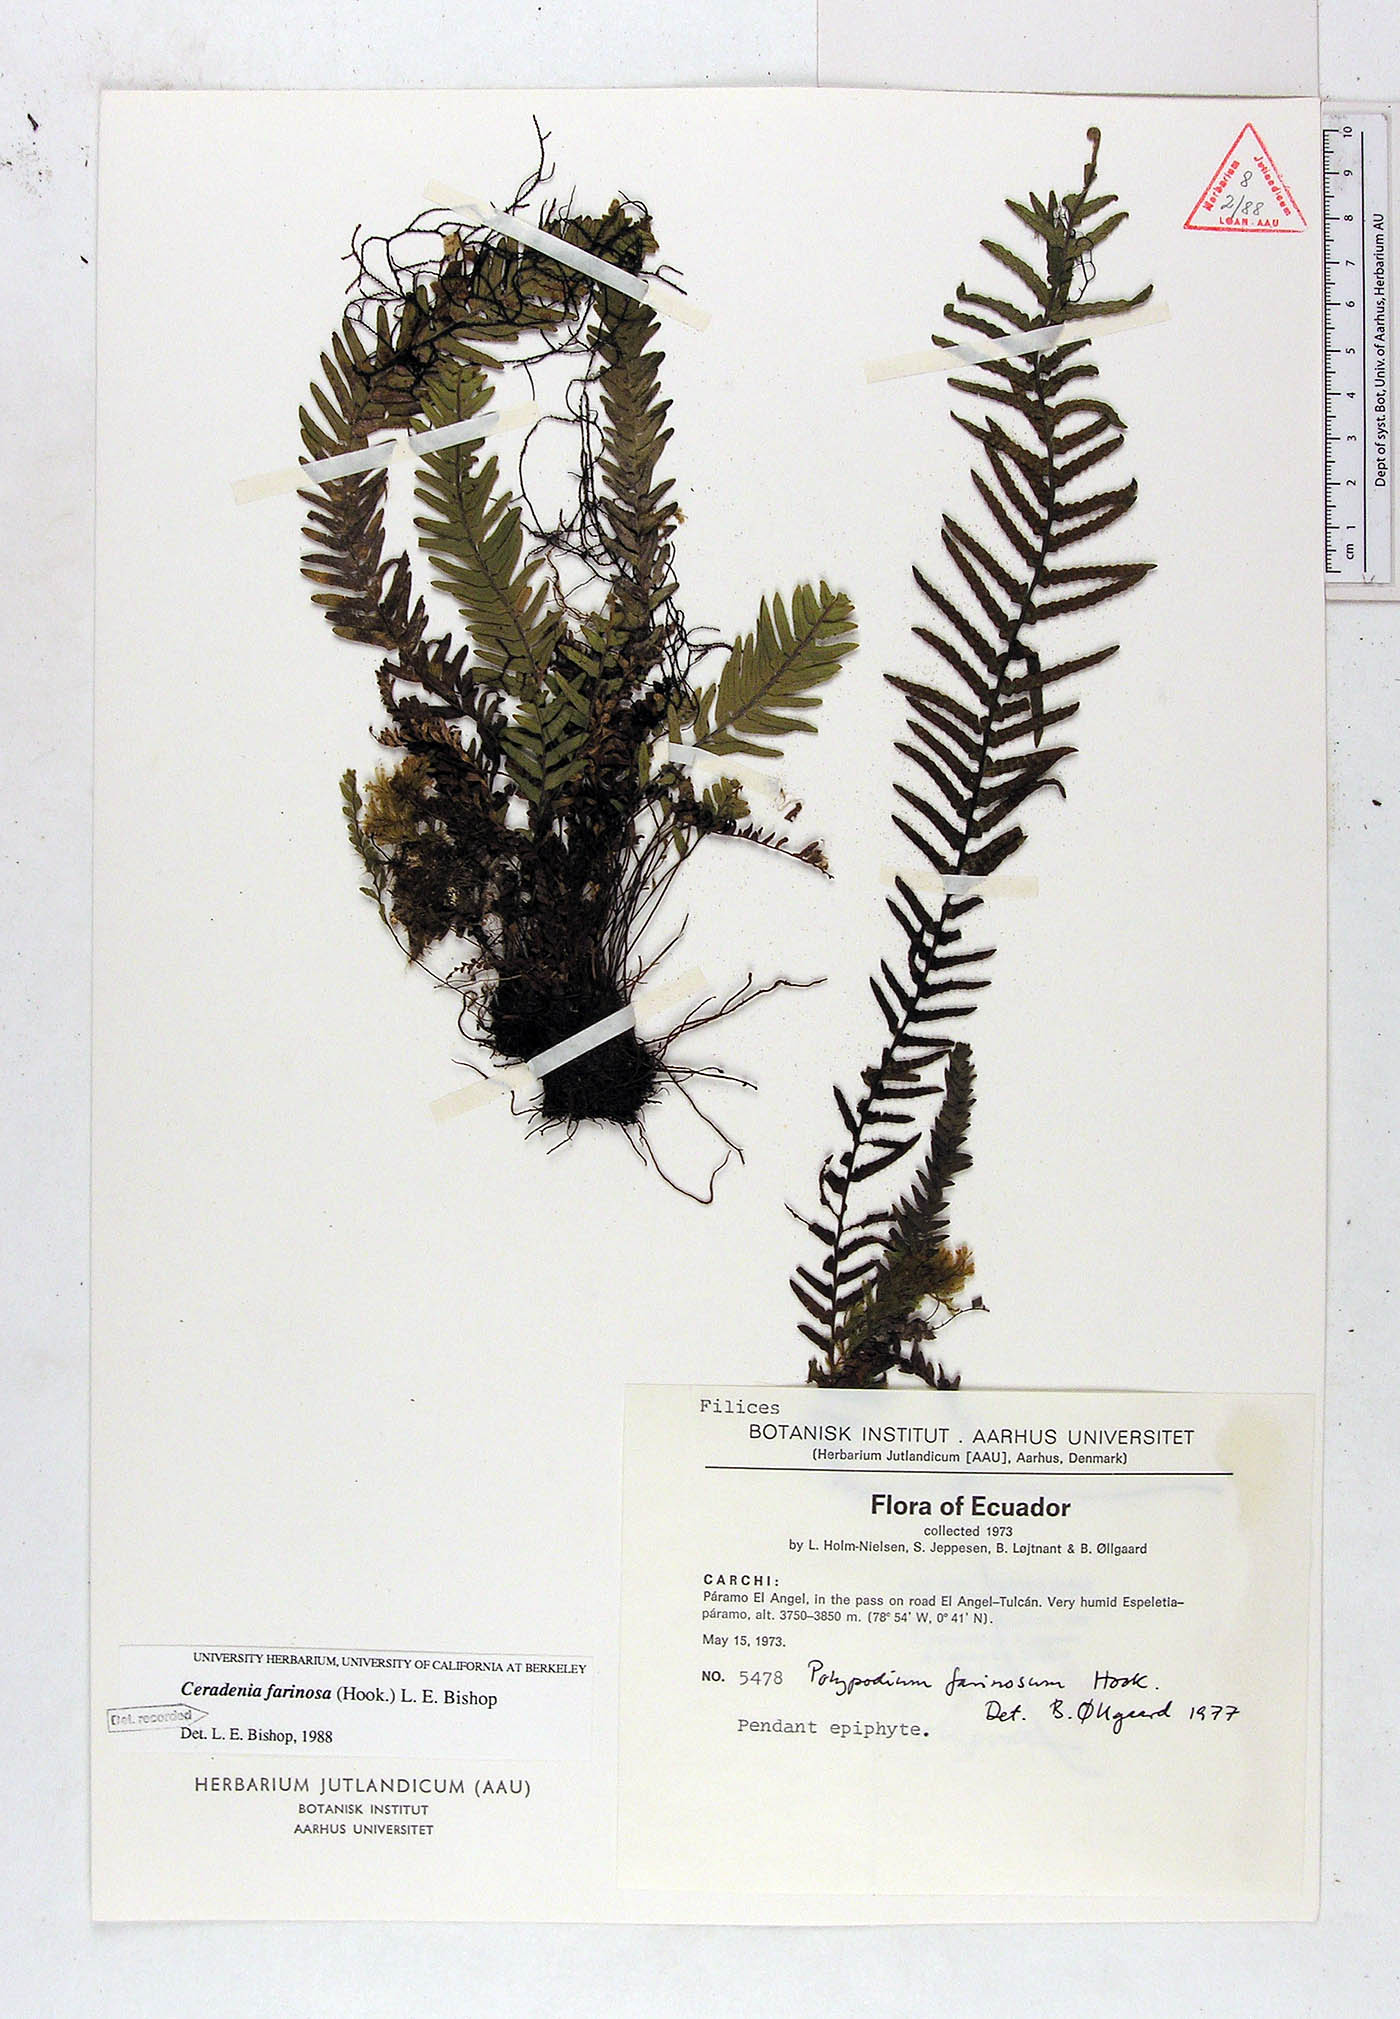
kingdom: Plantae
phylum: Tracheophyta
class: Polypodiopsida
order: Polypodiales
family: Polypodiaceae
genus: Ceradenia
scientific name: Ceradenia farinosa
